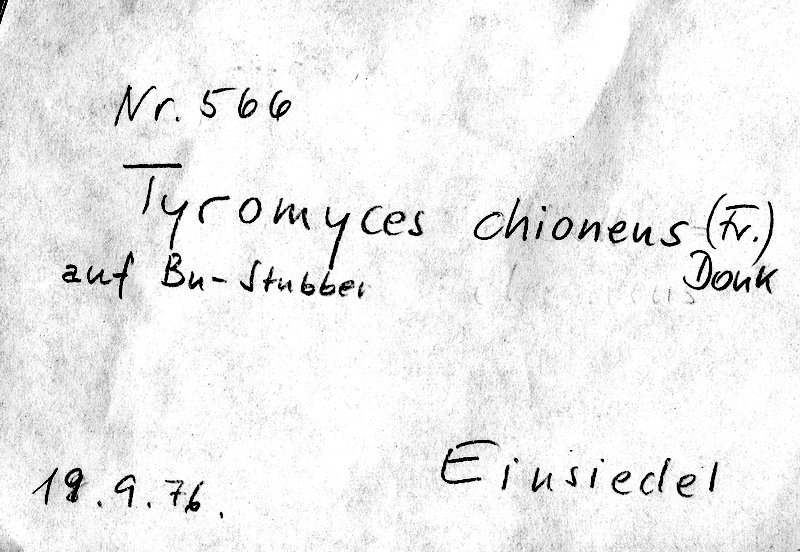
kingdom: Fungi
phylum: Basidiomycota
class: Agaricomycetes
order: Polyporales
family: Incrustoporiaceae
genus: Tyromyces
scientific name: Tyromyces chioneus
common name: White cheese polypore
